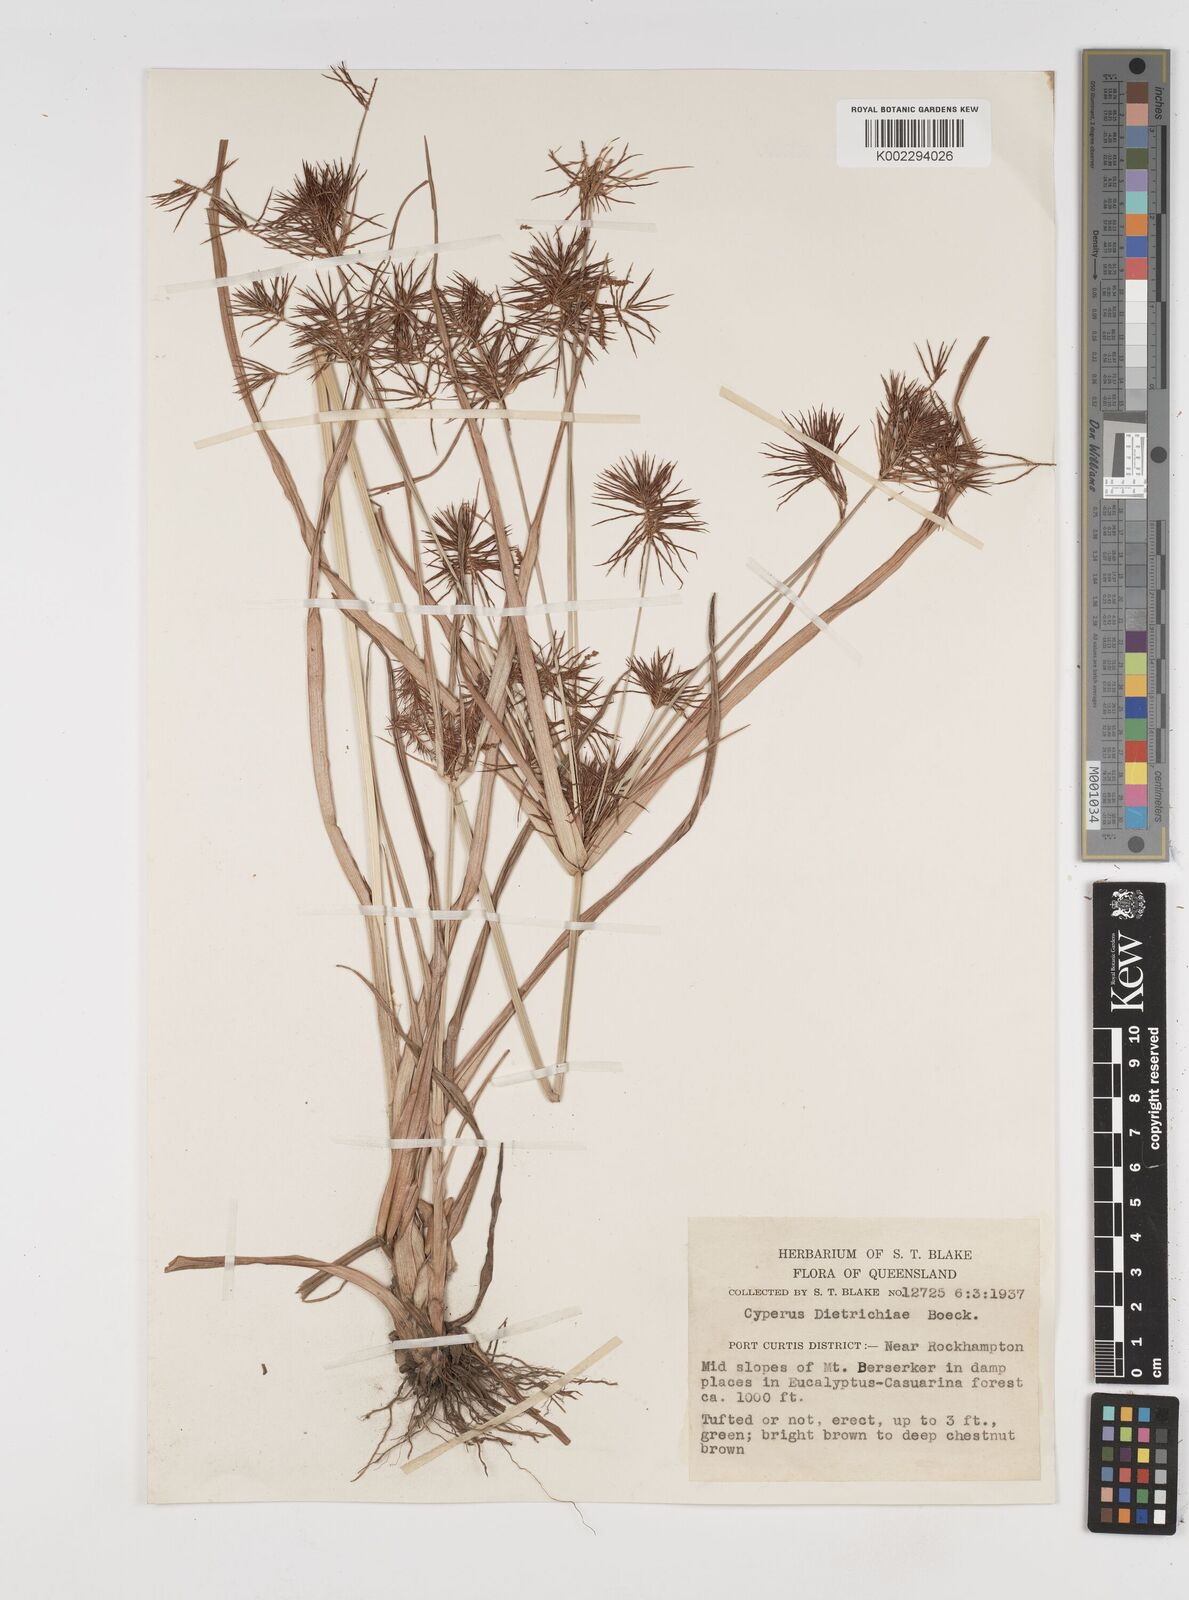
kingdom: Plantae
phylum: Tracheophyta
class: Liliopsida
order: Poales
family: Cyperaceae
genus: Cyperus
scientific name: Cyperus dietrichiae
